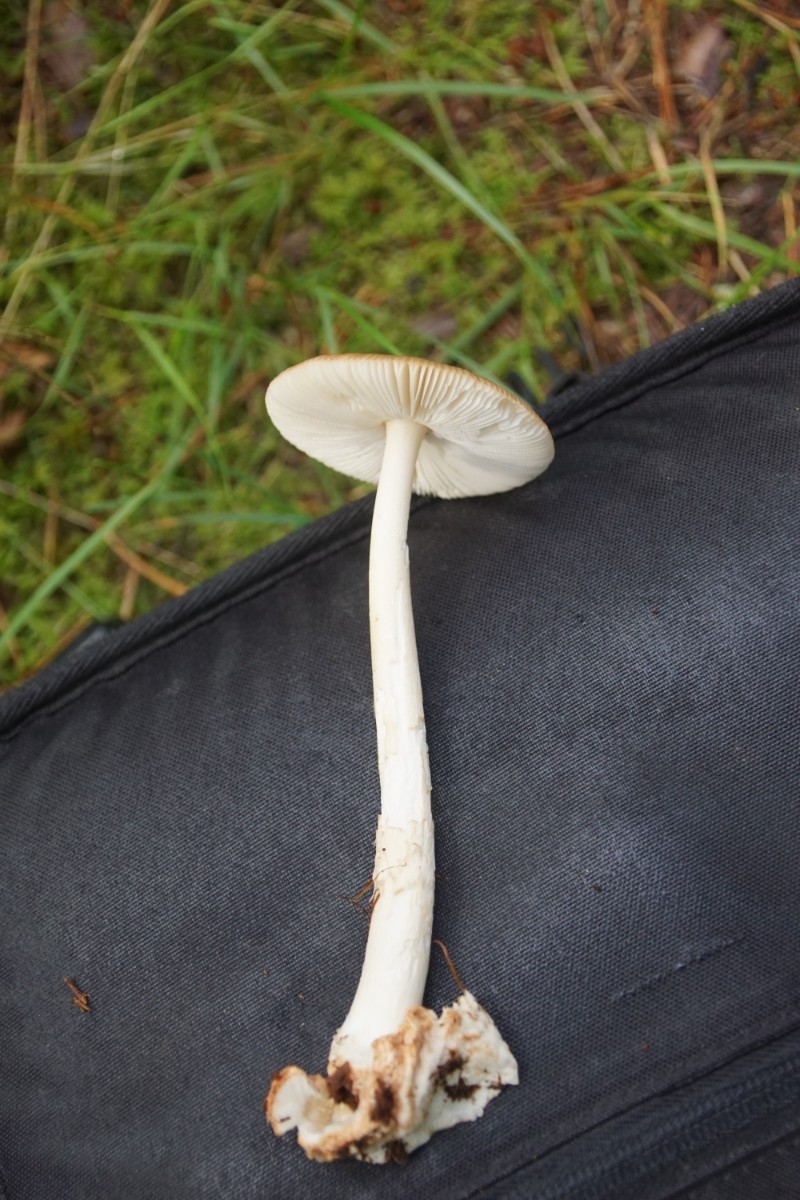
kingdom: Fungi
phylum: Basidiomycota
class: Agaricomycetes
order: Agaricales
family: Amanitaceae
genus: Amanita
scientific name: Amanita fulva
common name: brun kam-fluesvamp
